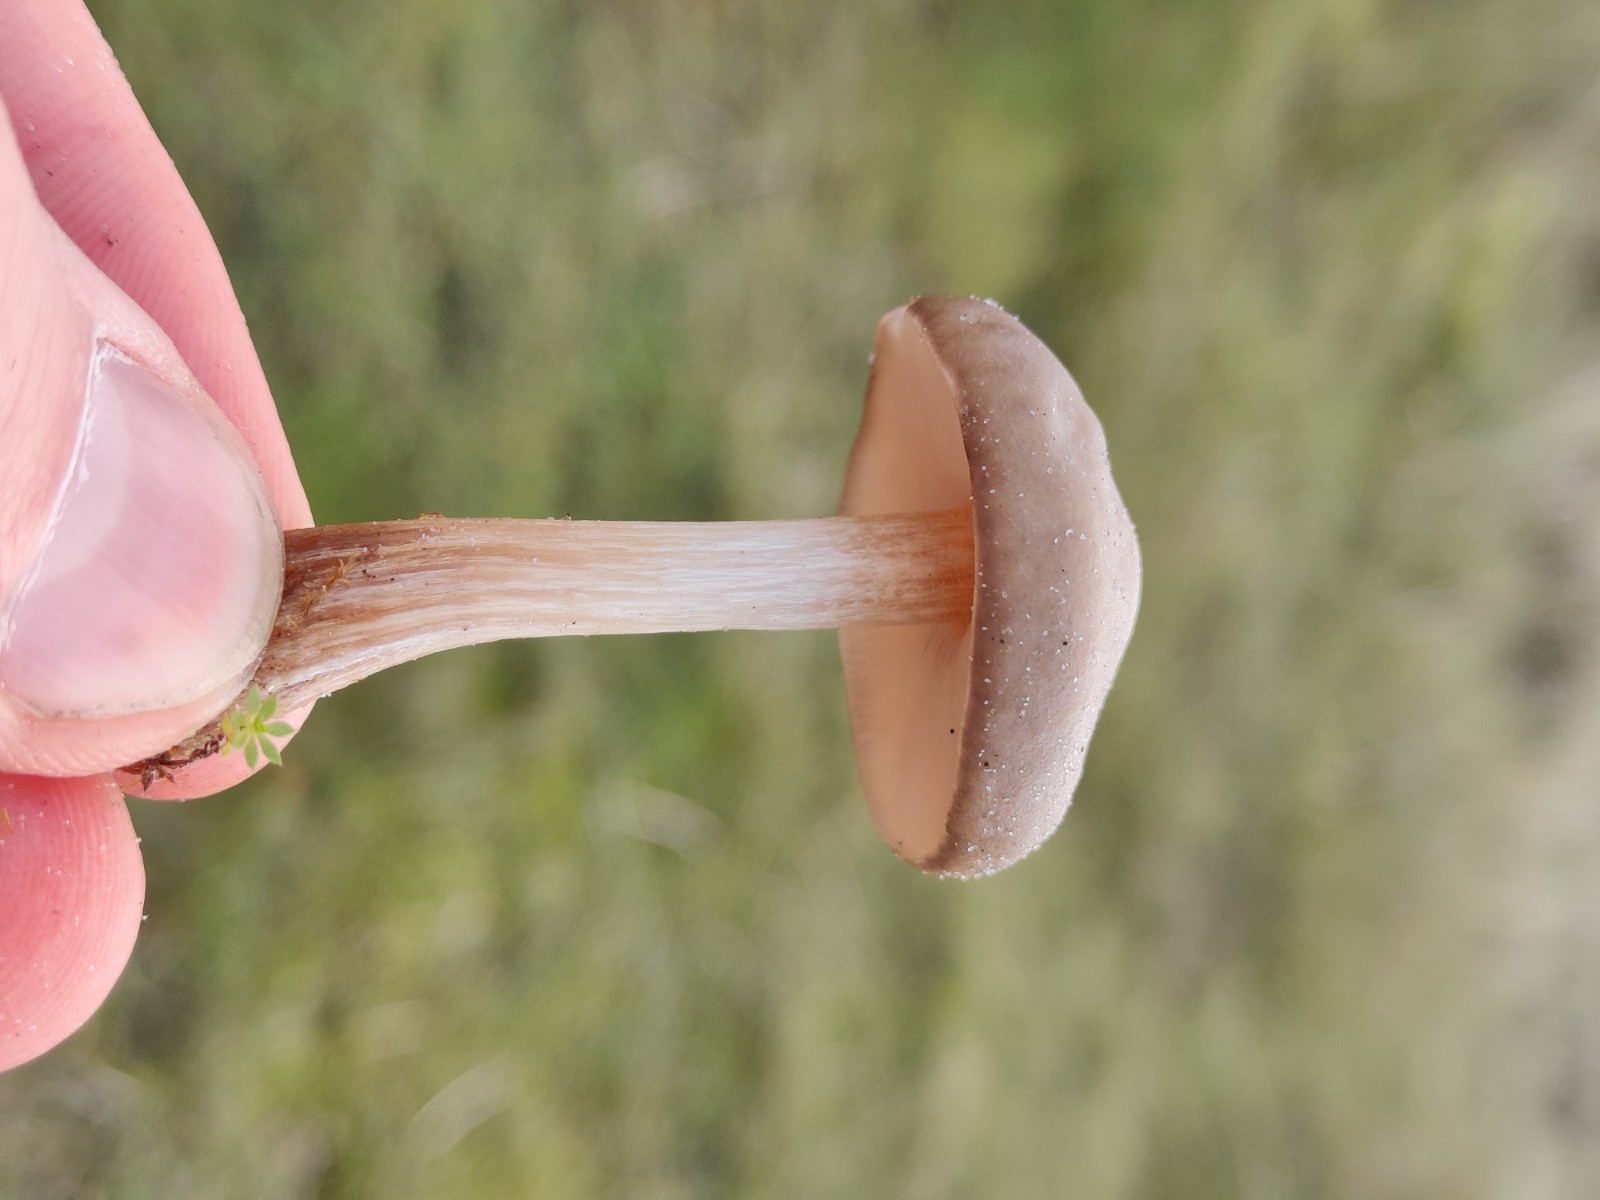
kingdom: Fungi
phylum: Basidiomycota
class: Agaricomycetes
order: Agaricales
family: Tricholomataceae
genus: Melanoleuca
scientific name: Melanoleuca
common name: munkehat
